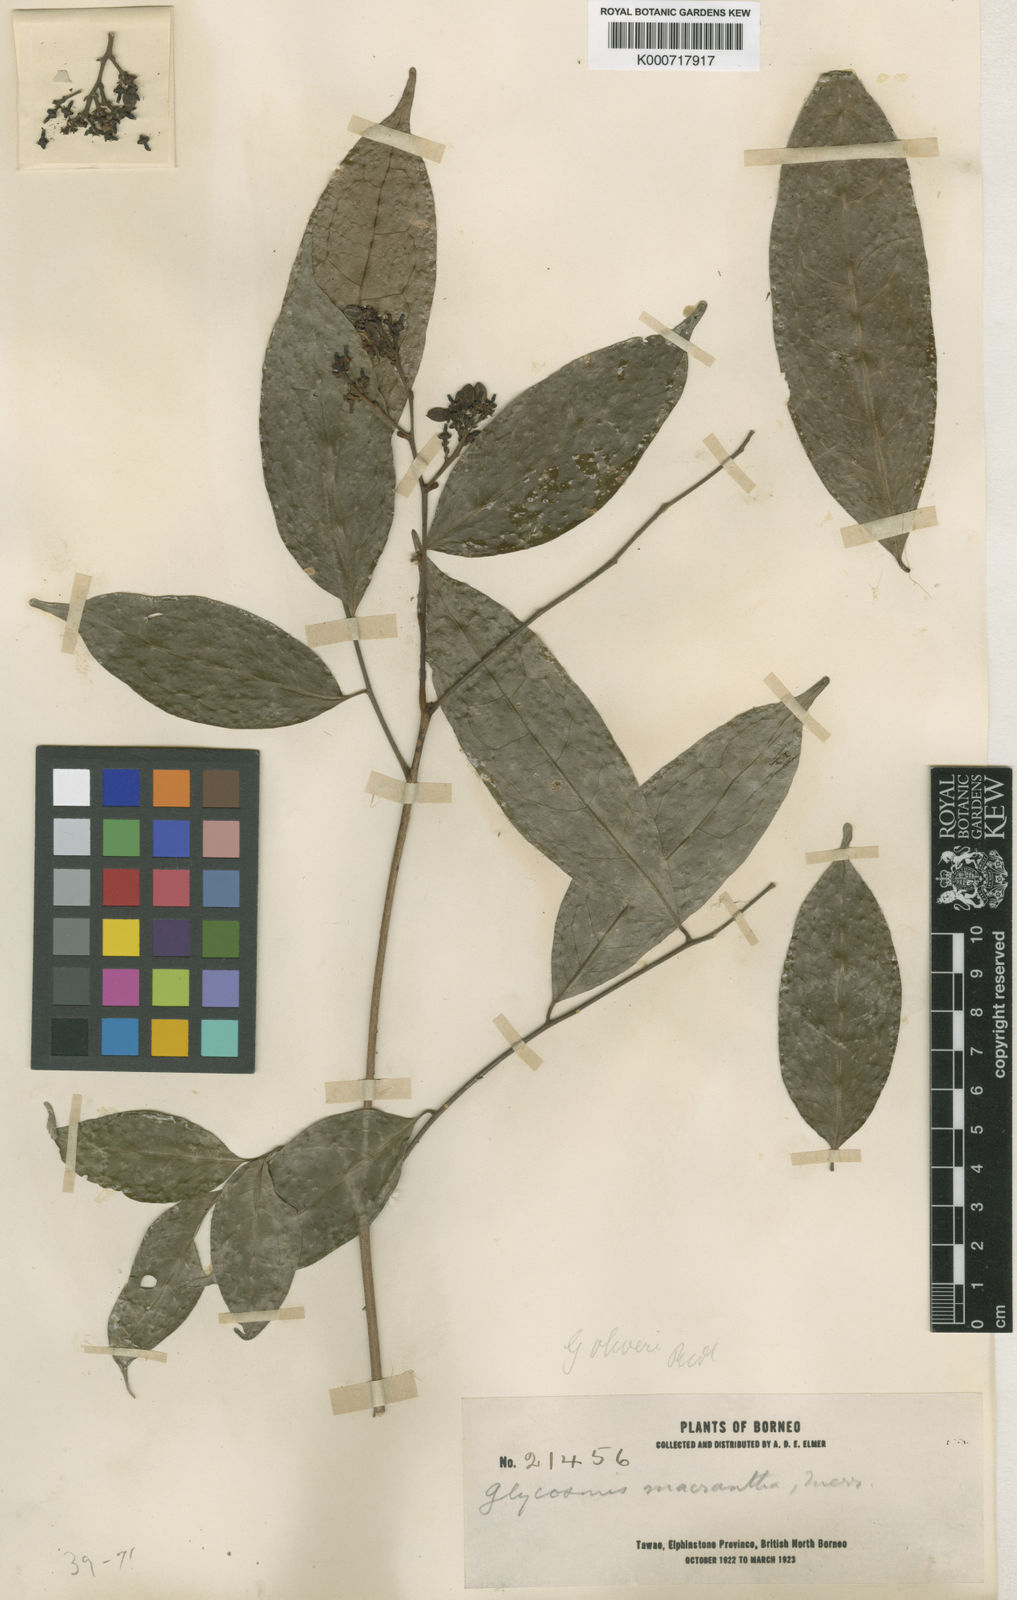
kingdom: Plantae
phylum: Tracheophyta
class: Magnoliopsida
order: Sapindales
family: Rutaceae
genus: Glycosmis
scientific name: Glycosmis macrantha
